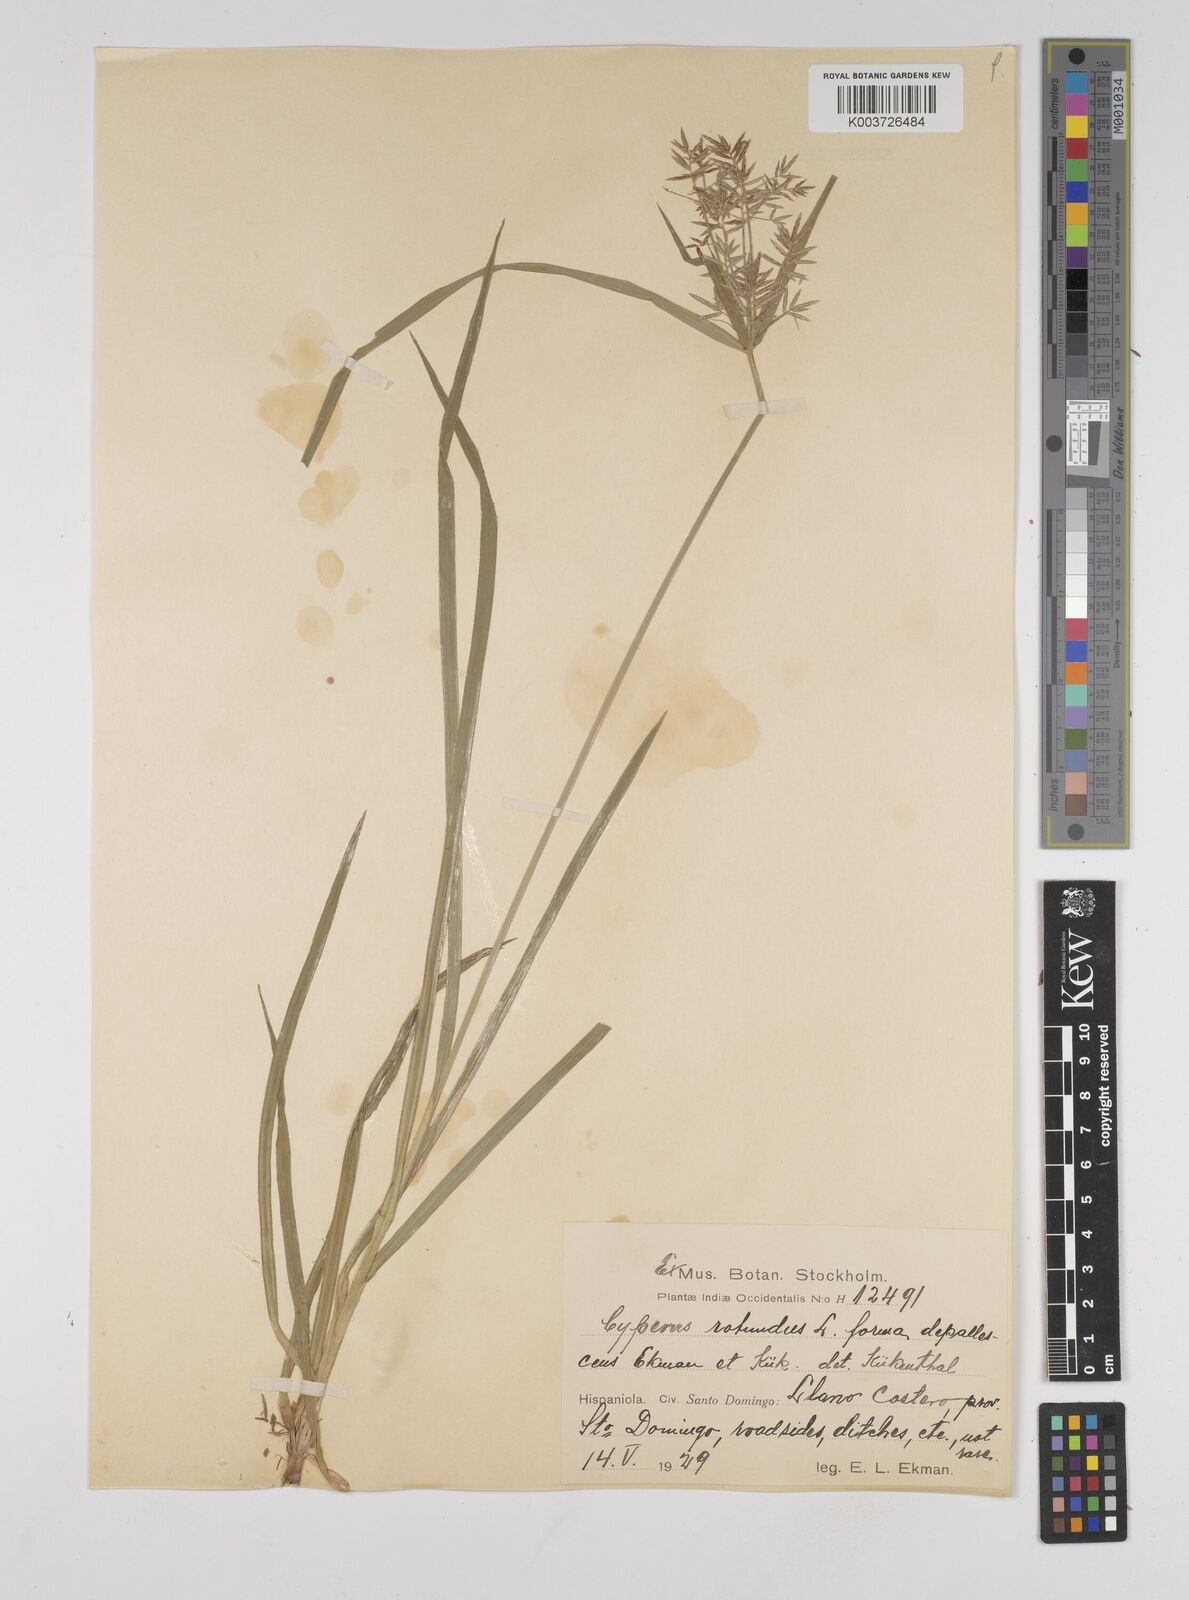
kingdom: Plantae
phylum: Tracheophyta
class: Liliopsida
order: Poales
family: Cyperaceae
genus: Cyperus
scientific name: Cyperus rotundus
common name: Nutgrass
